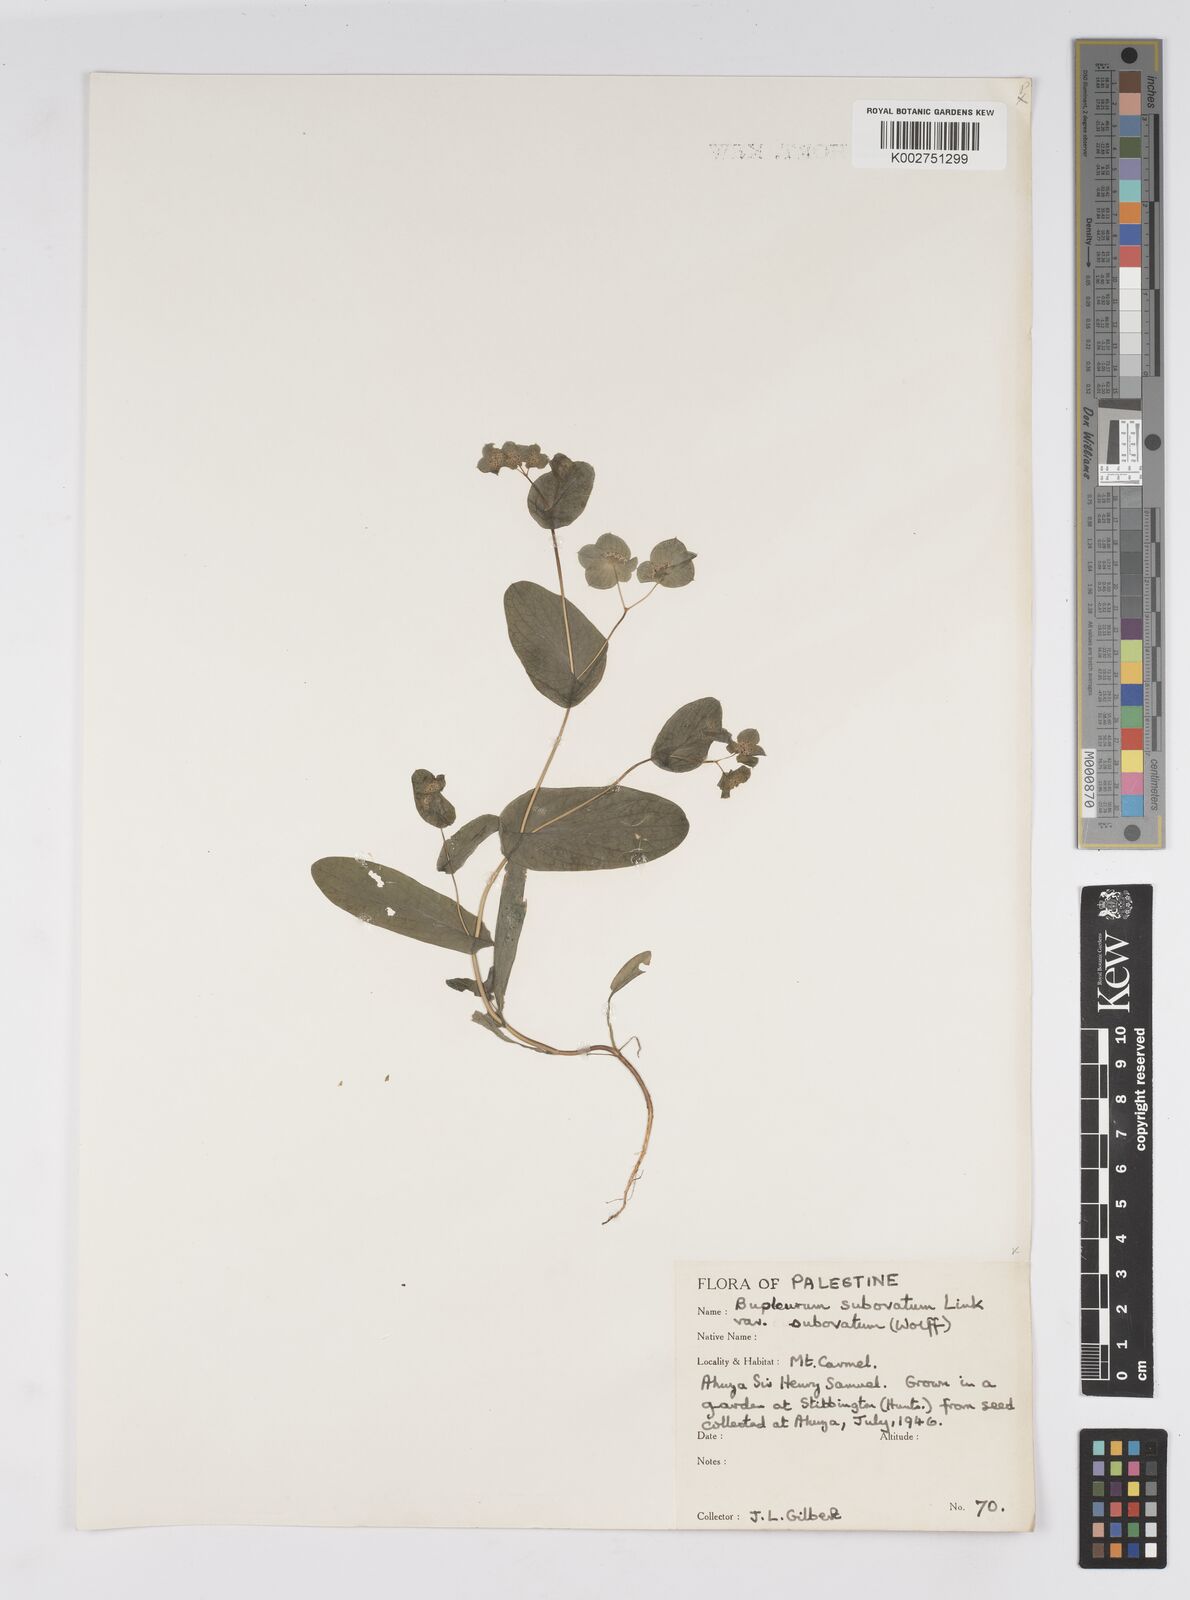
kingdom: Plantae
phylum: Tracheophyta
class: Magnoliopsida
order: Apiales
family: Apiaceae
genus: Bupleurum
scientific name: Bupleurum subovatum
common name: False thorow-wax
